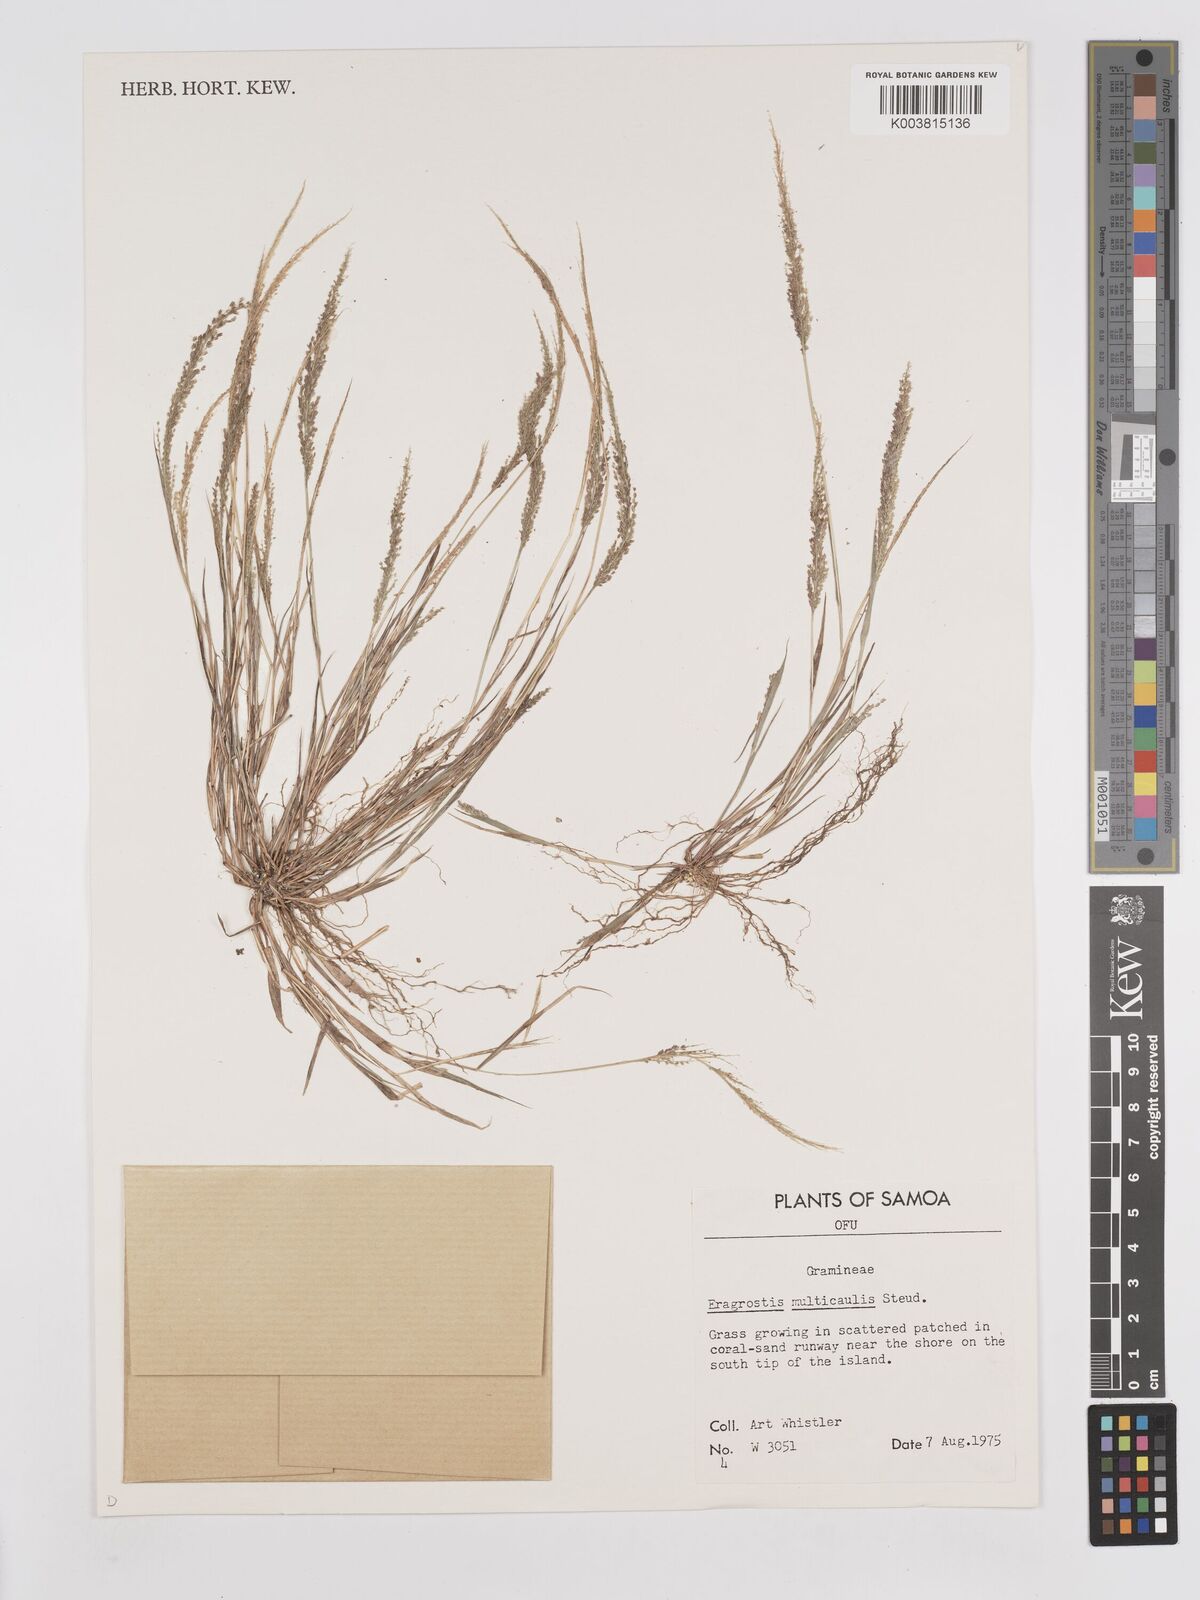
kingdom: Plantae
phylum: Tracheophyta
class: Liliopsida
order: Poales
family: Poaceae
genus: Eragrostis
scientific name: Eragrostis tenella
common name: Japanese lovegrass
